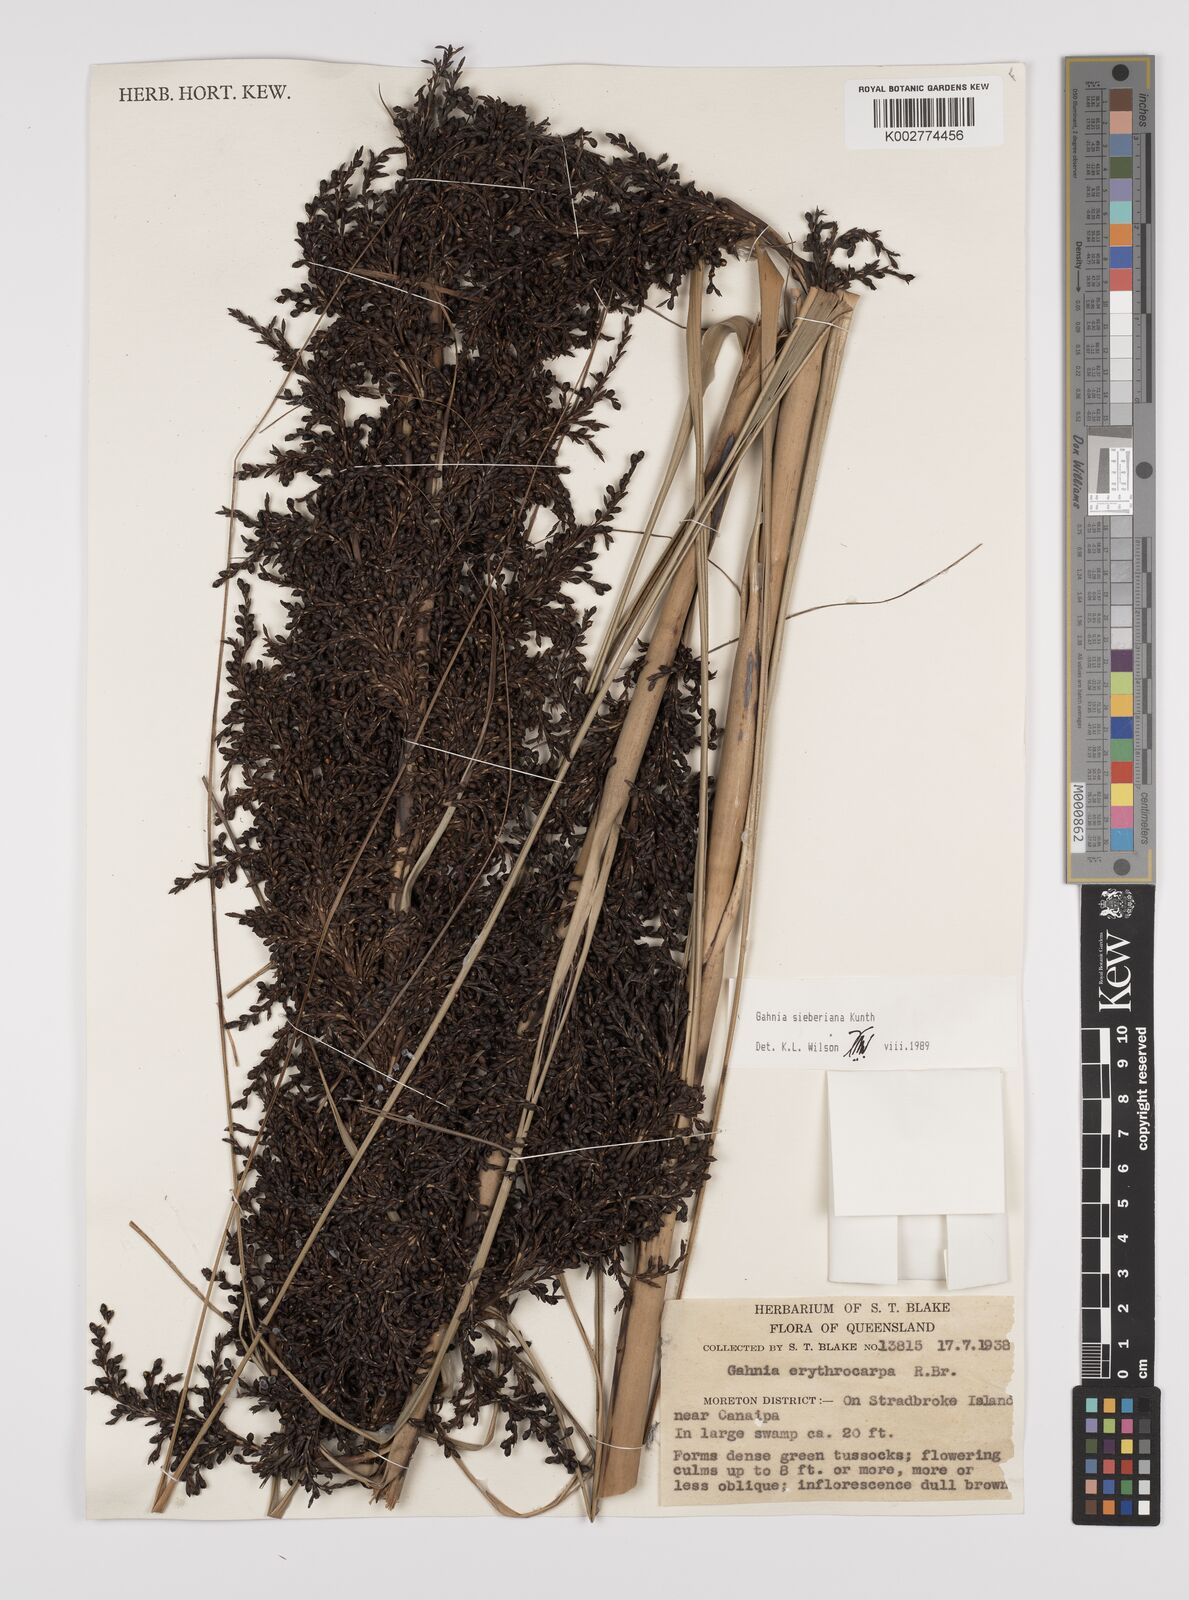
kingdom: Plantae
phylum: Tracheophyta
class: Liliopsida
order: Poales
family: Cyperaceae
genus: Gahnia
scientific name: Gahnia sieberiana
